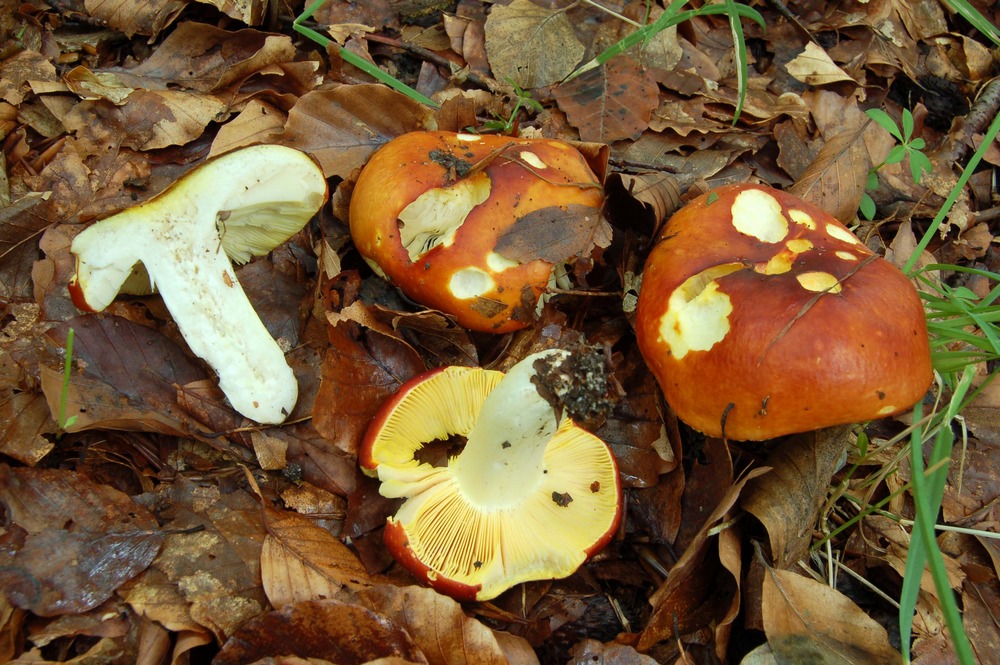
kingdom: Fungi
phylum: Basidiomycota
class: Agaricomycetes
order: Russulales
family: Russulaceae
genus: Russula
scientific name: Russula aurea
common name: gylden skørhat
